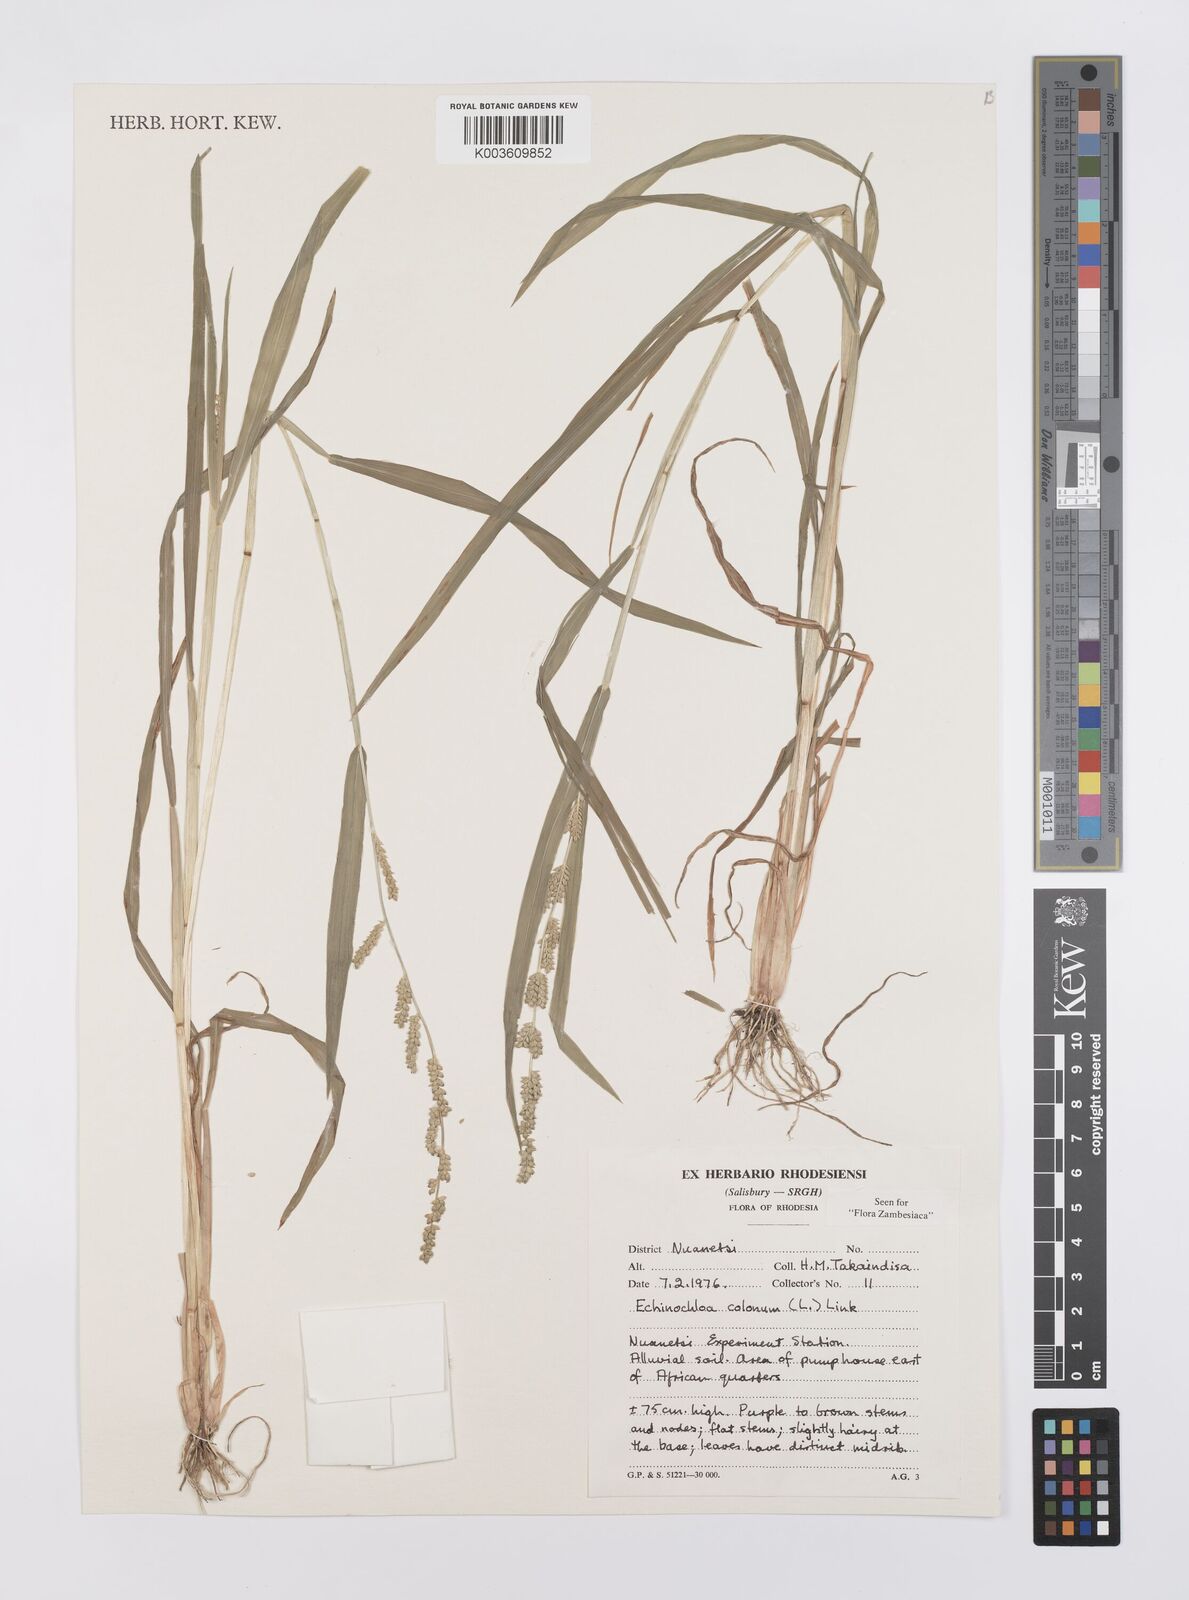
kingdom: Plantae
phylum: Tracheophyta
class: Liliopsida
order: Poales
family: Poaceae
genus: Echinochloa
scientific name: Echinochloa colonum
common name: Jungle rice
